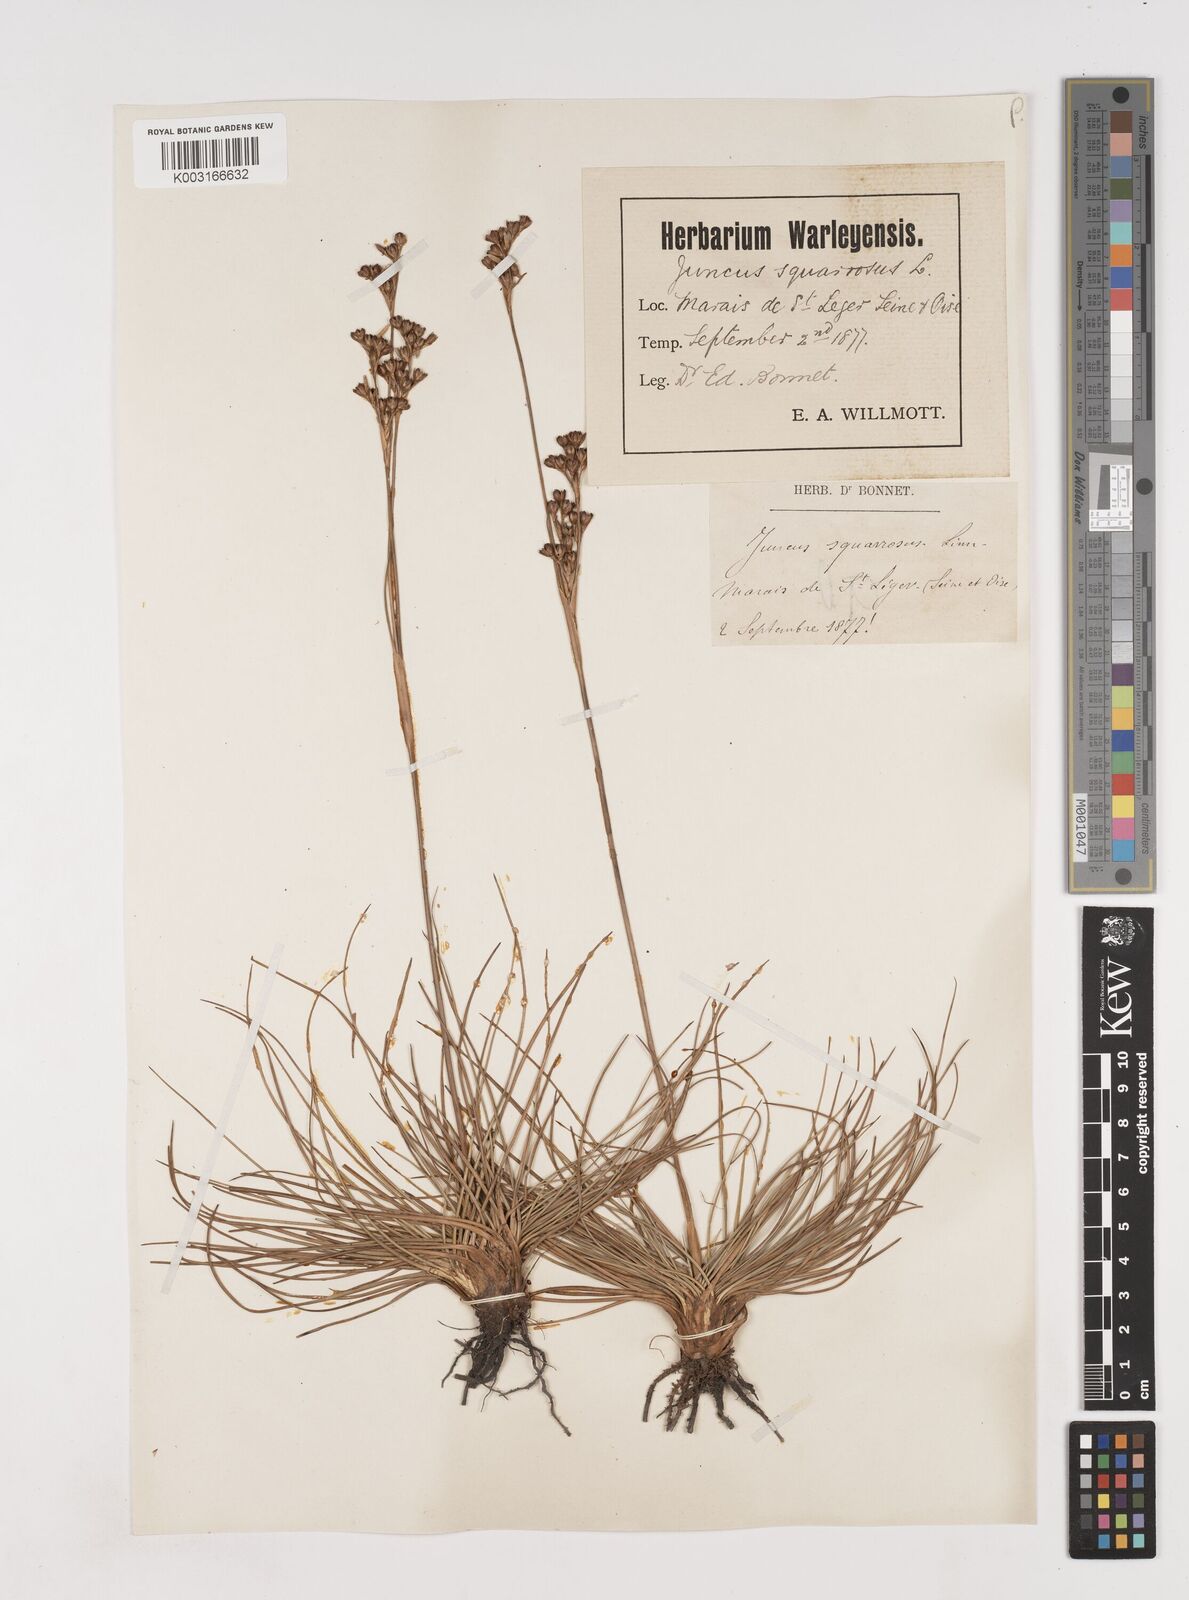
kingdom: Plantae
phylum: Tracheophyta
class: Liliopsida
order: Poales
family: Juncaceae
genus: Juncus
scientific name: Juncus squarrosus
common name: Heath rush
